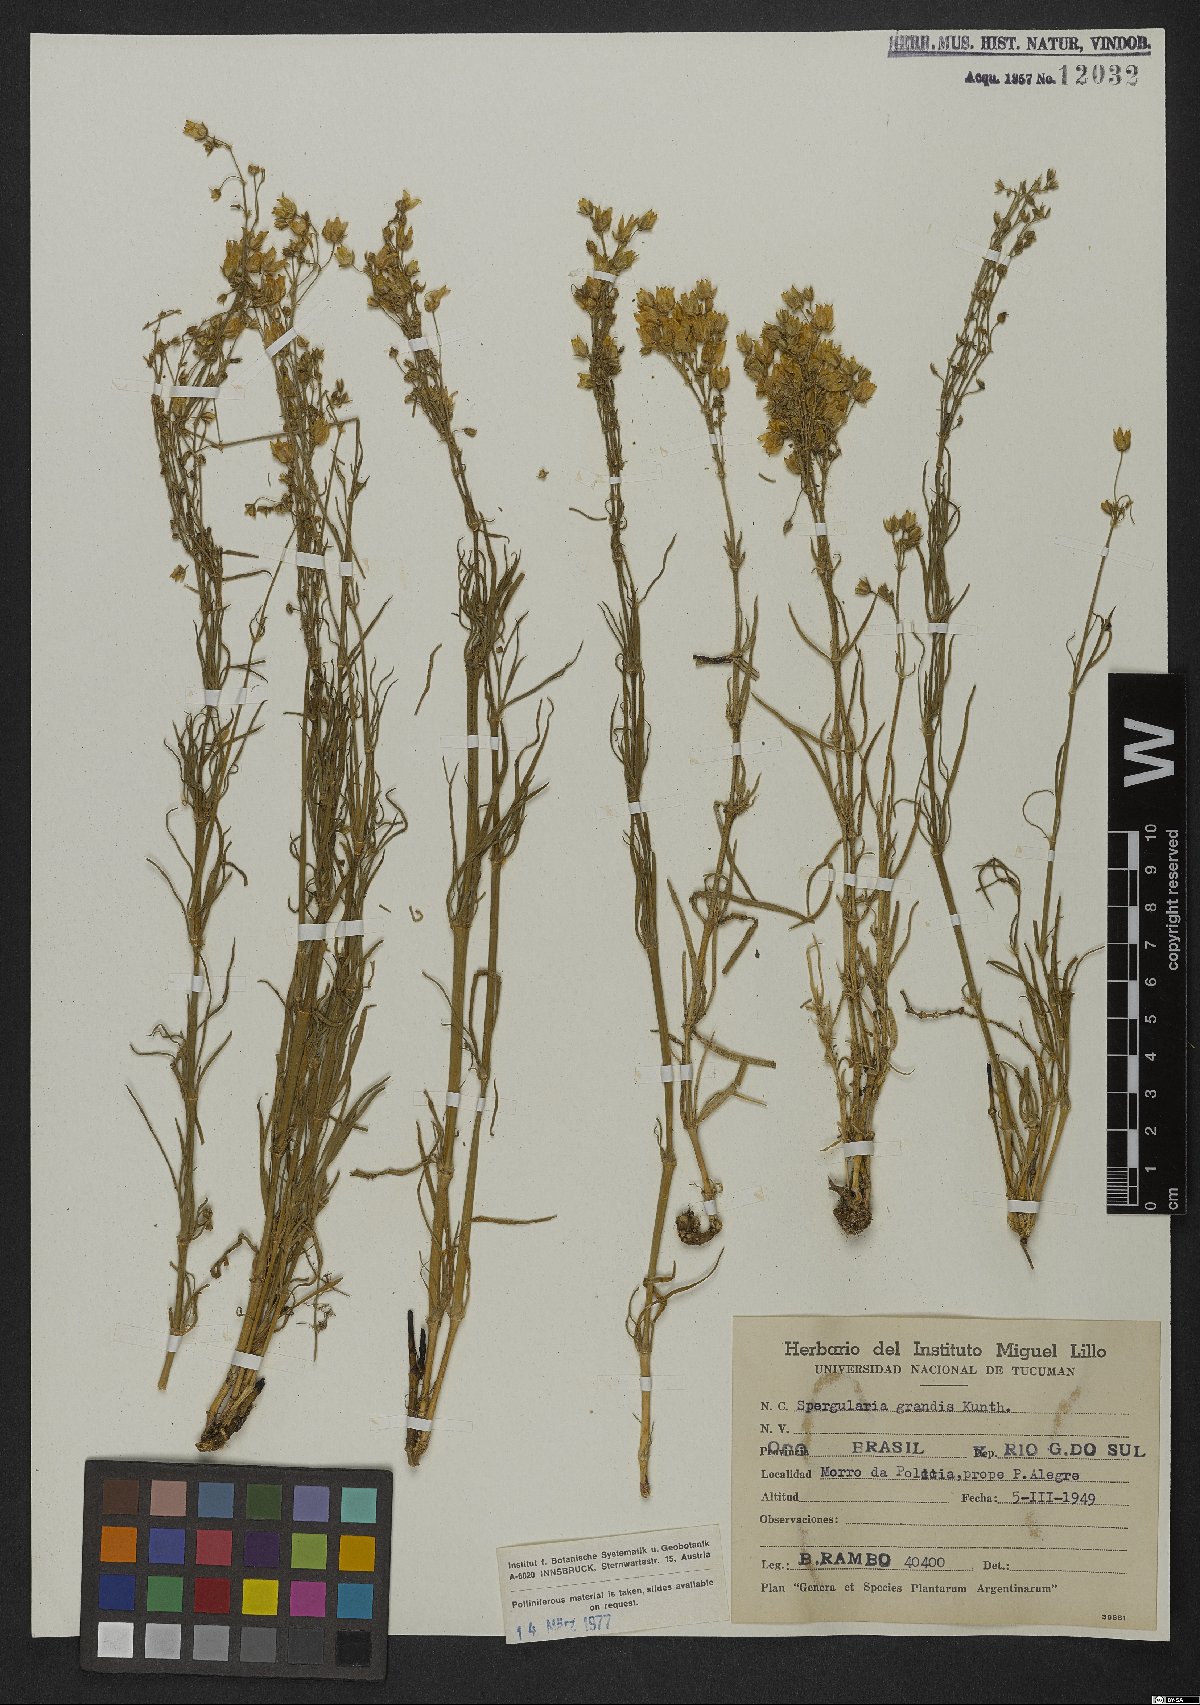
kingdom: Plantae
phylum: Tracheophyta
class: Magnoliopsida
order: Caryophyllales
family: Caryophyllaceae
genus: Spergula
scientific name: Spergula grandis
